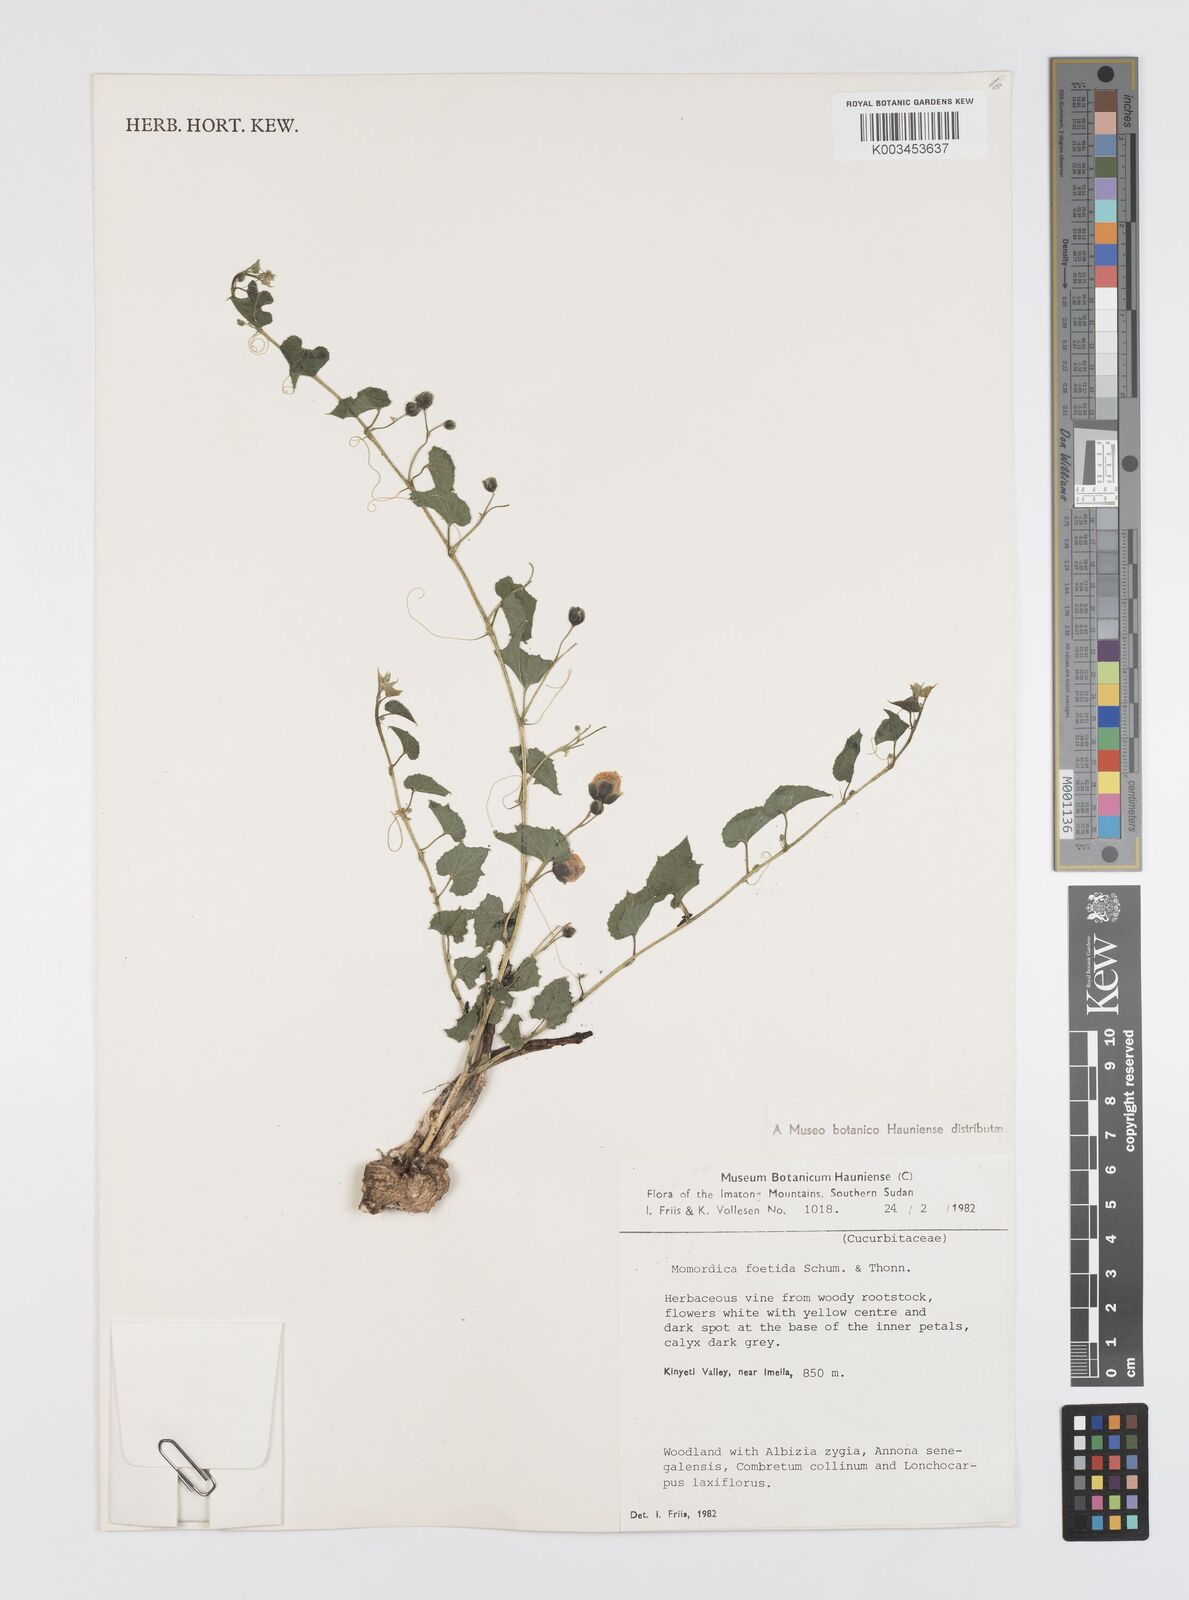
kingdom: Plantae
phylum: Tracheophyta
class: Magnoliopsida
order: Cucurbitales
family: Cucurbitaceae
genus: Momordica
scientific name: Momordica foetida
